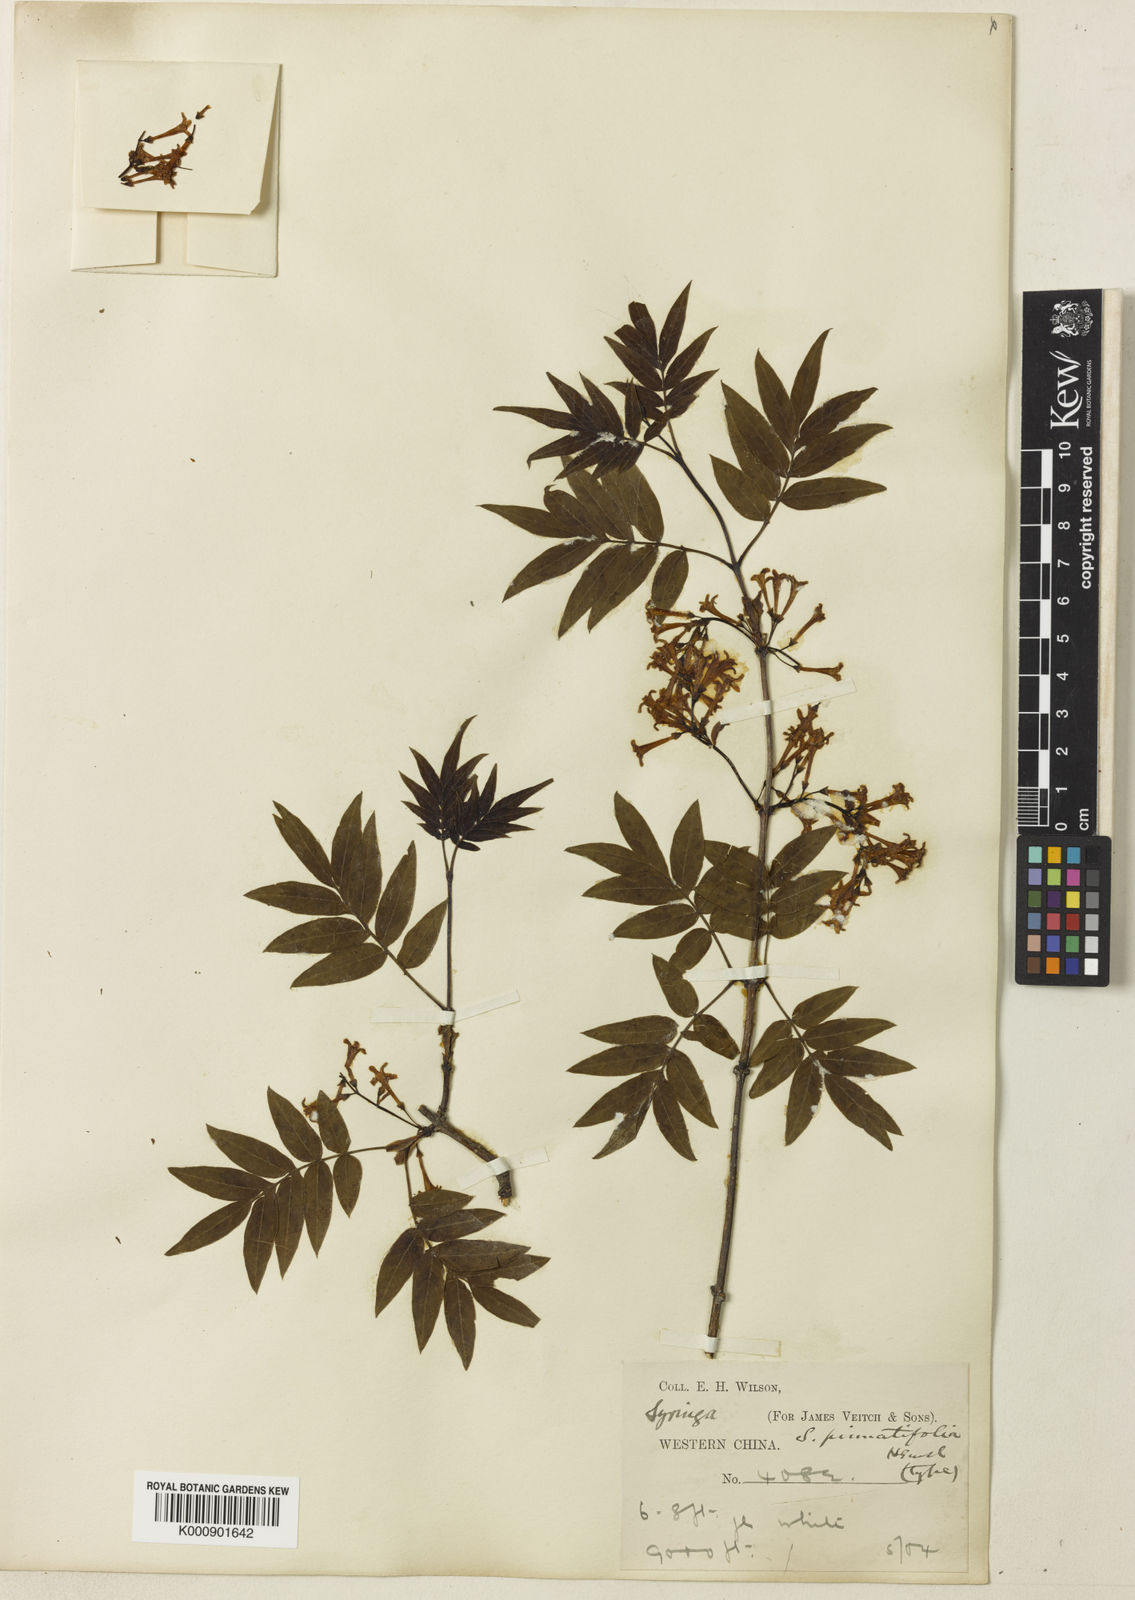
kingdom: Plantae
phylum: Tracheophyta
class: Magnoliopsida
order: Lamiales
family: Oleaceae
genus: Syringa
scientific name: Syringa pinnatifolia
